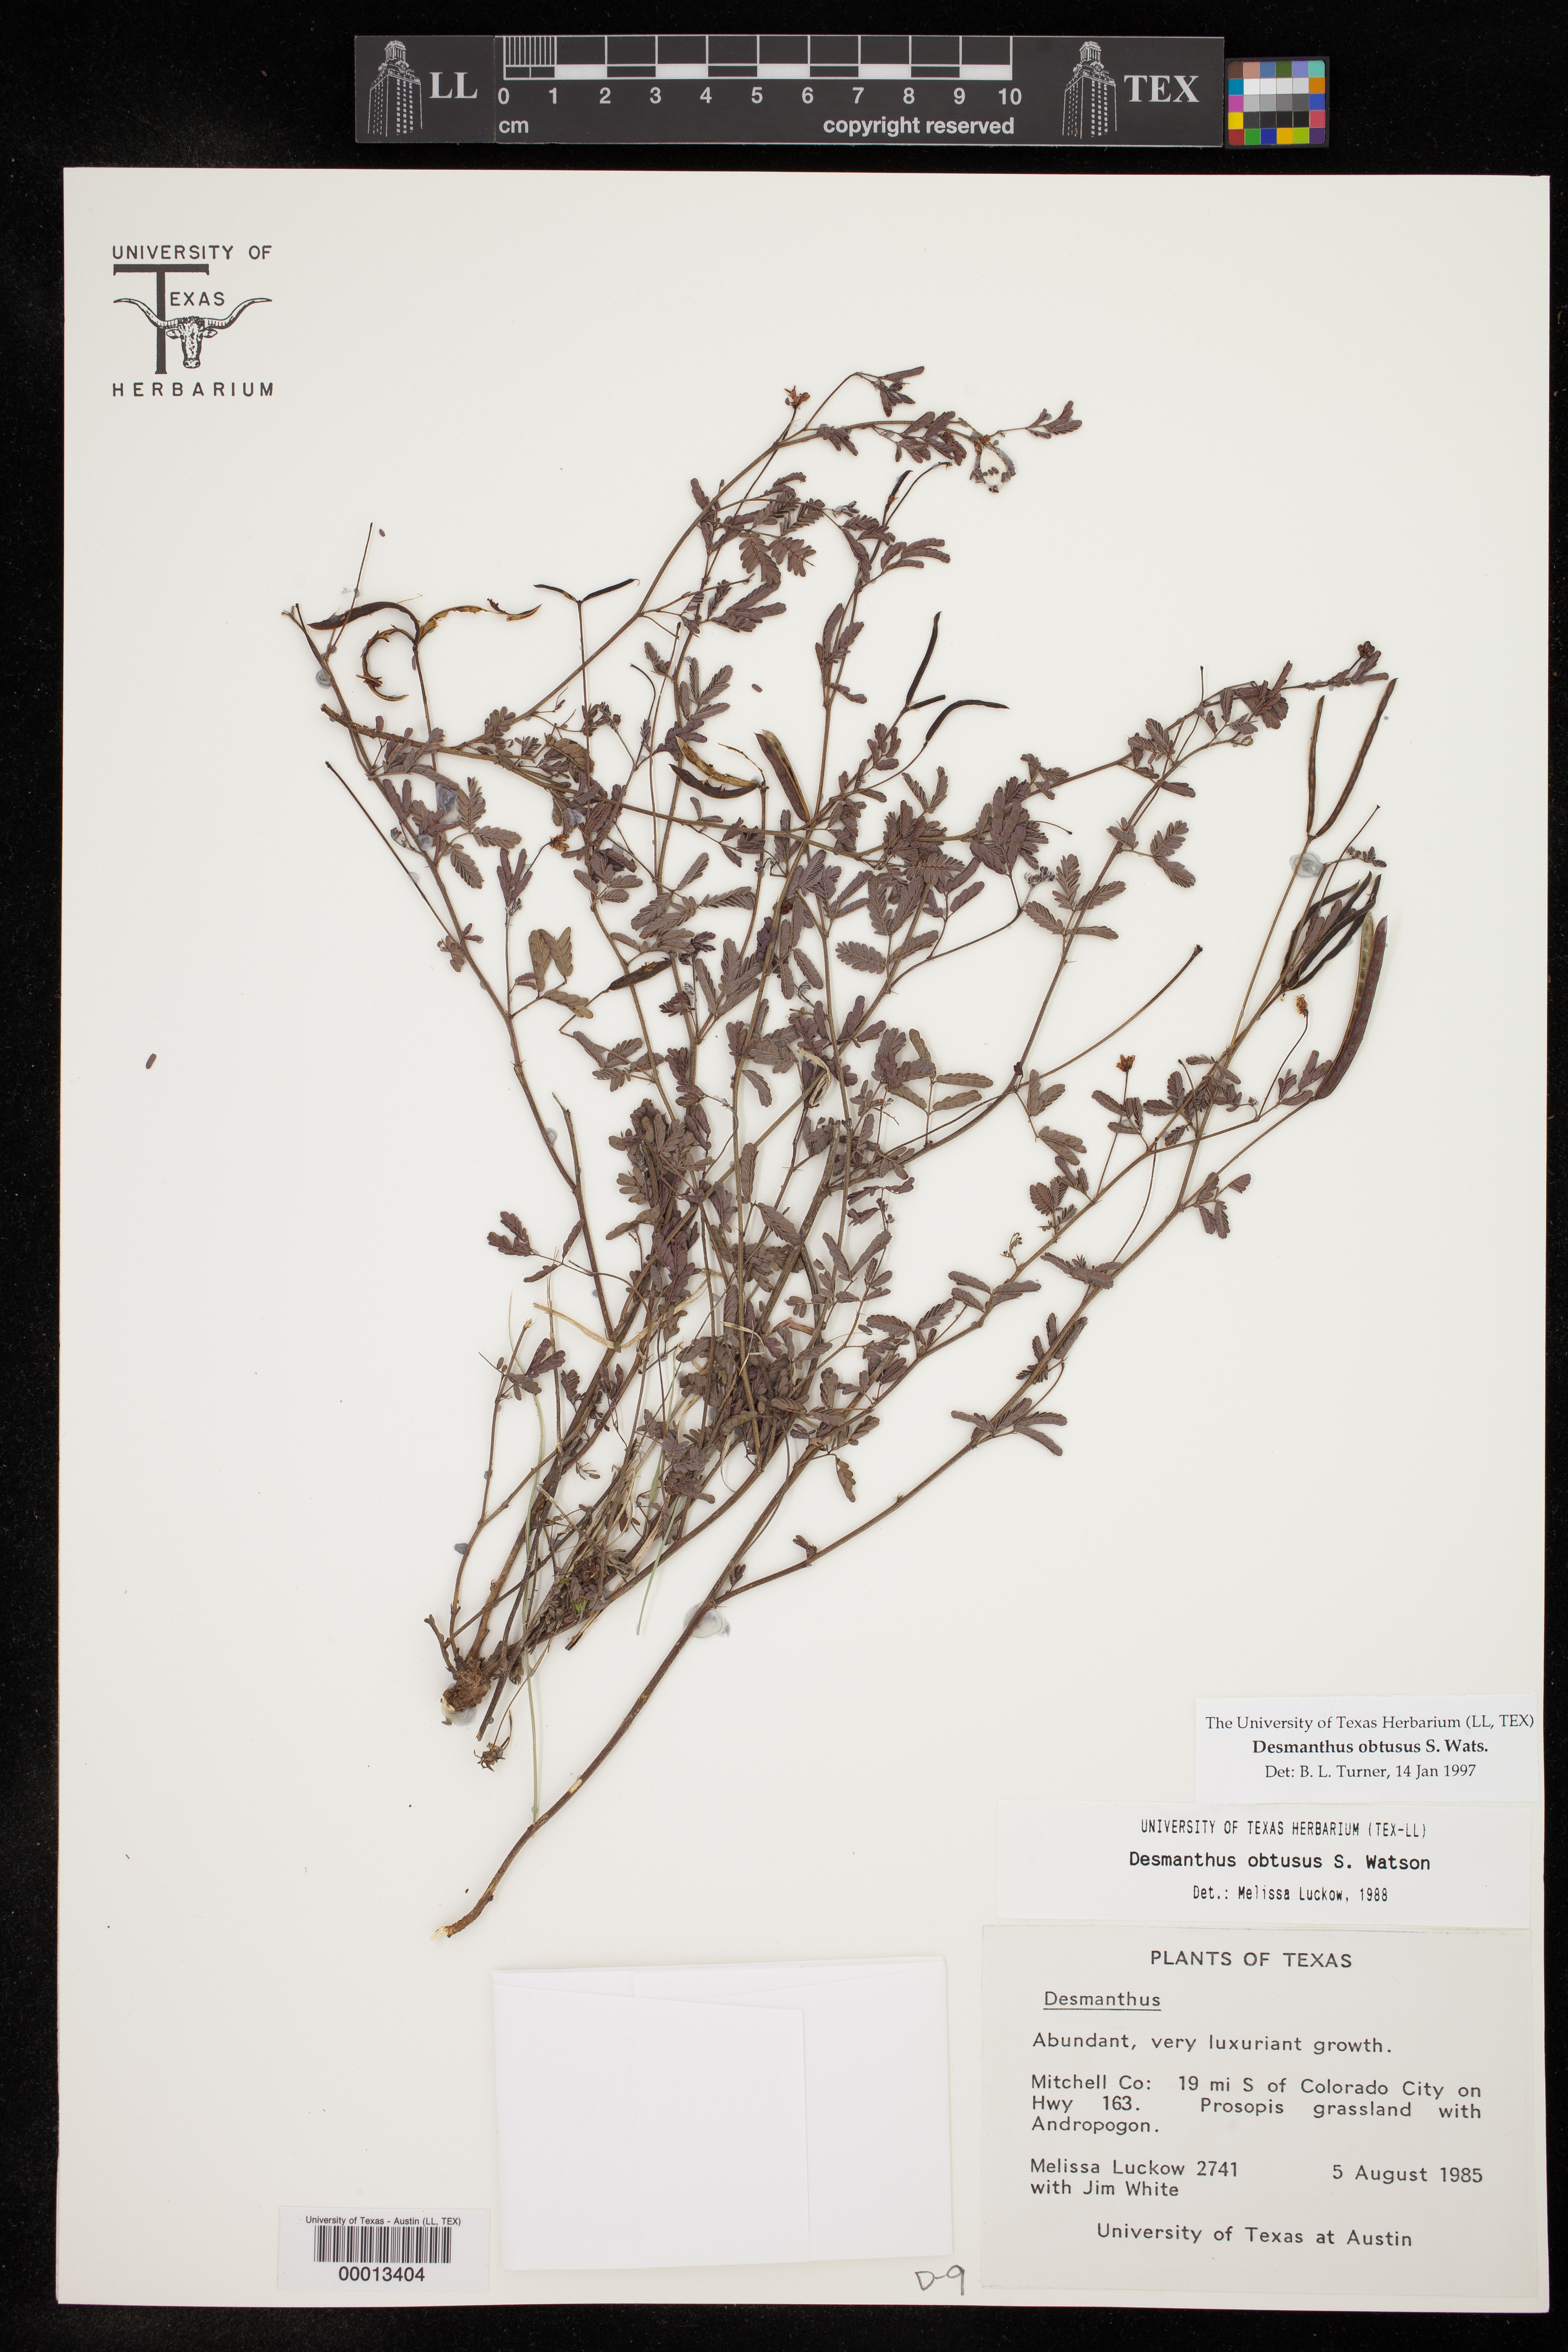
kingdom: Plantae
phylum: Tracheophyta
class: Magnoliopsida
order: Fabales
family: Fabaceae
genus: Desmanthus
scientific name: Desmanthus obtusus
